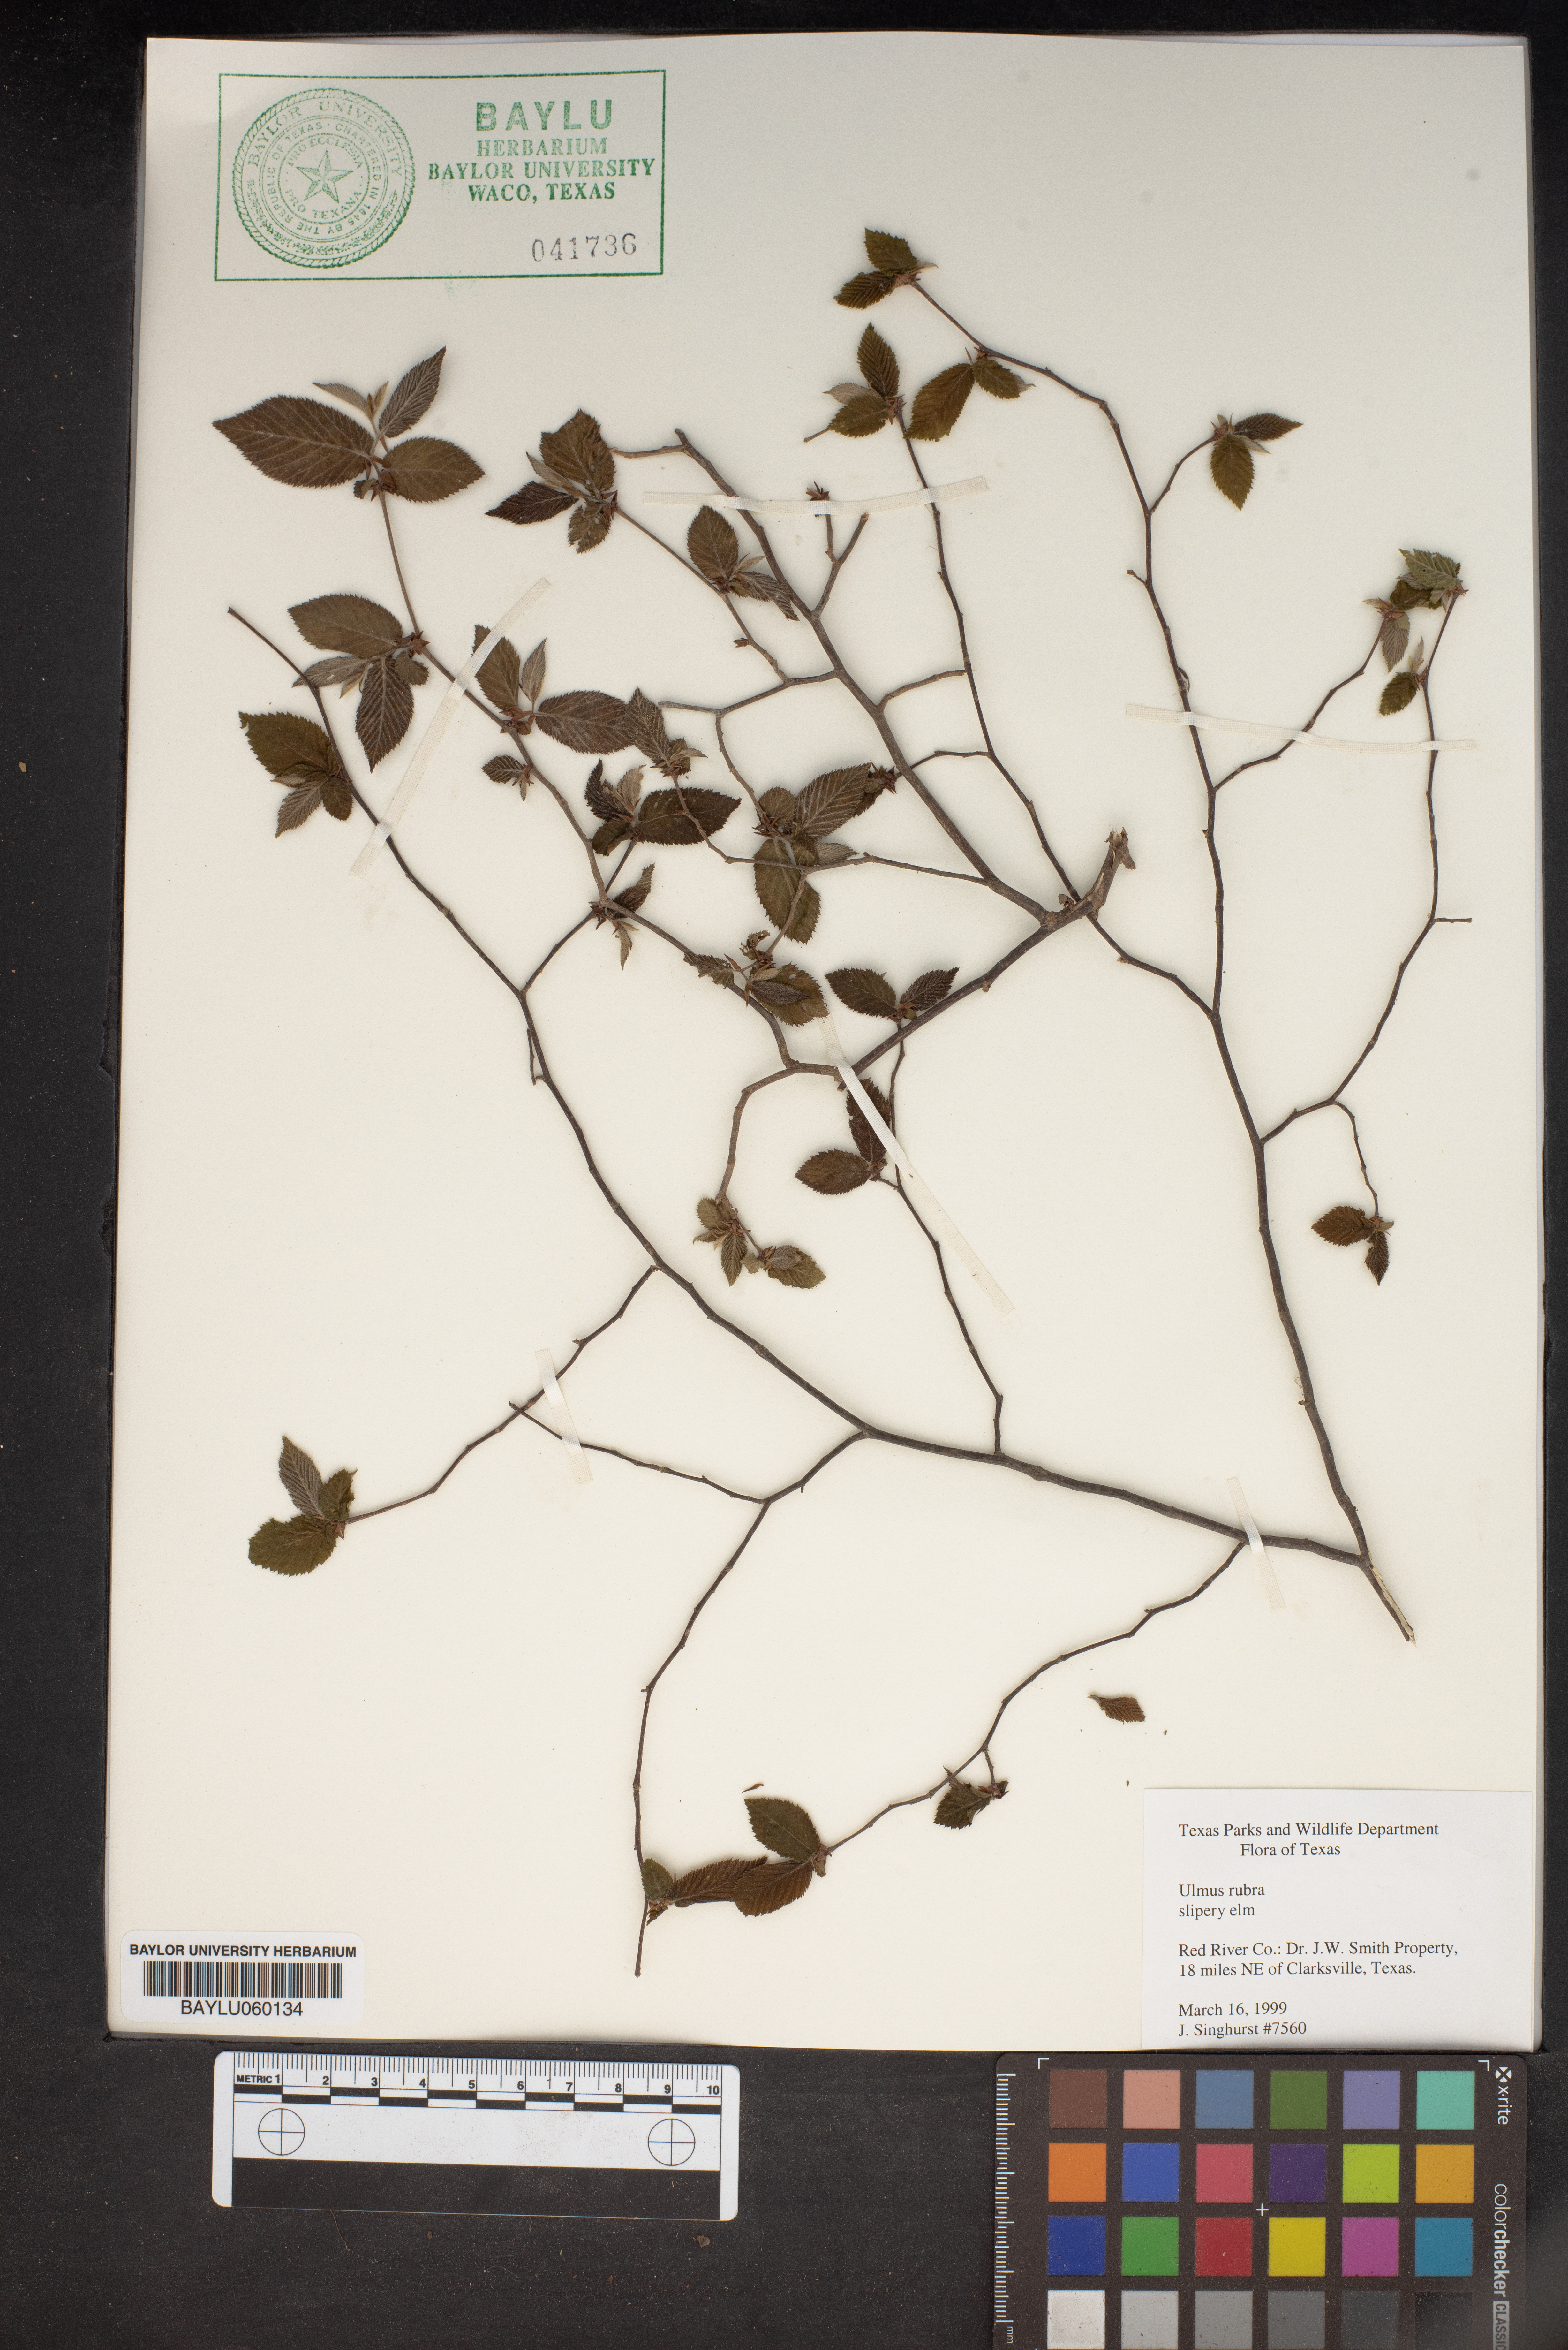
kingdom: Plantae
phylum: Tracheophyta
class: Magnoliopsida
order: Rosales
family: Ulmaceae
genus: Ulmus
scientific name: Ulmus rubra
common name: Slippery elm
